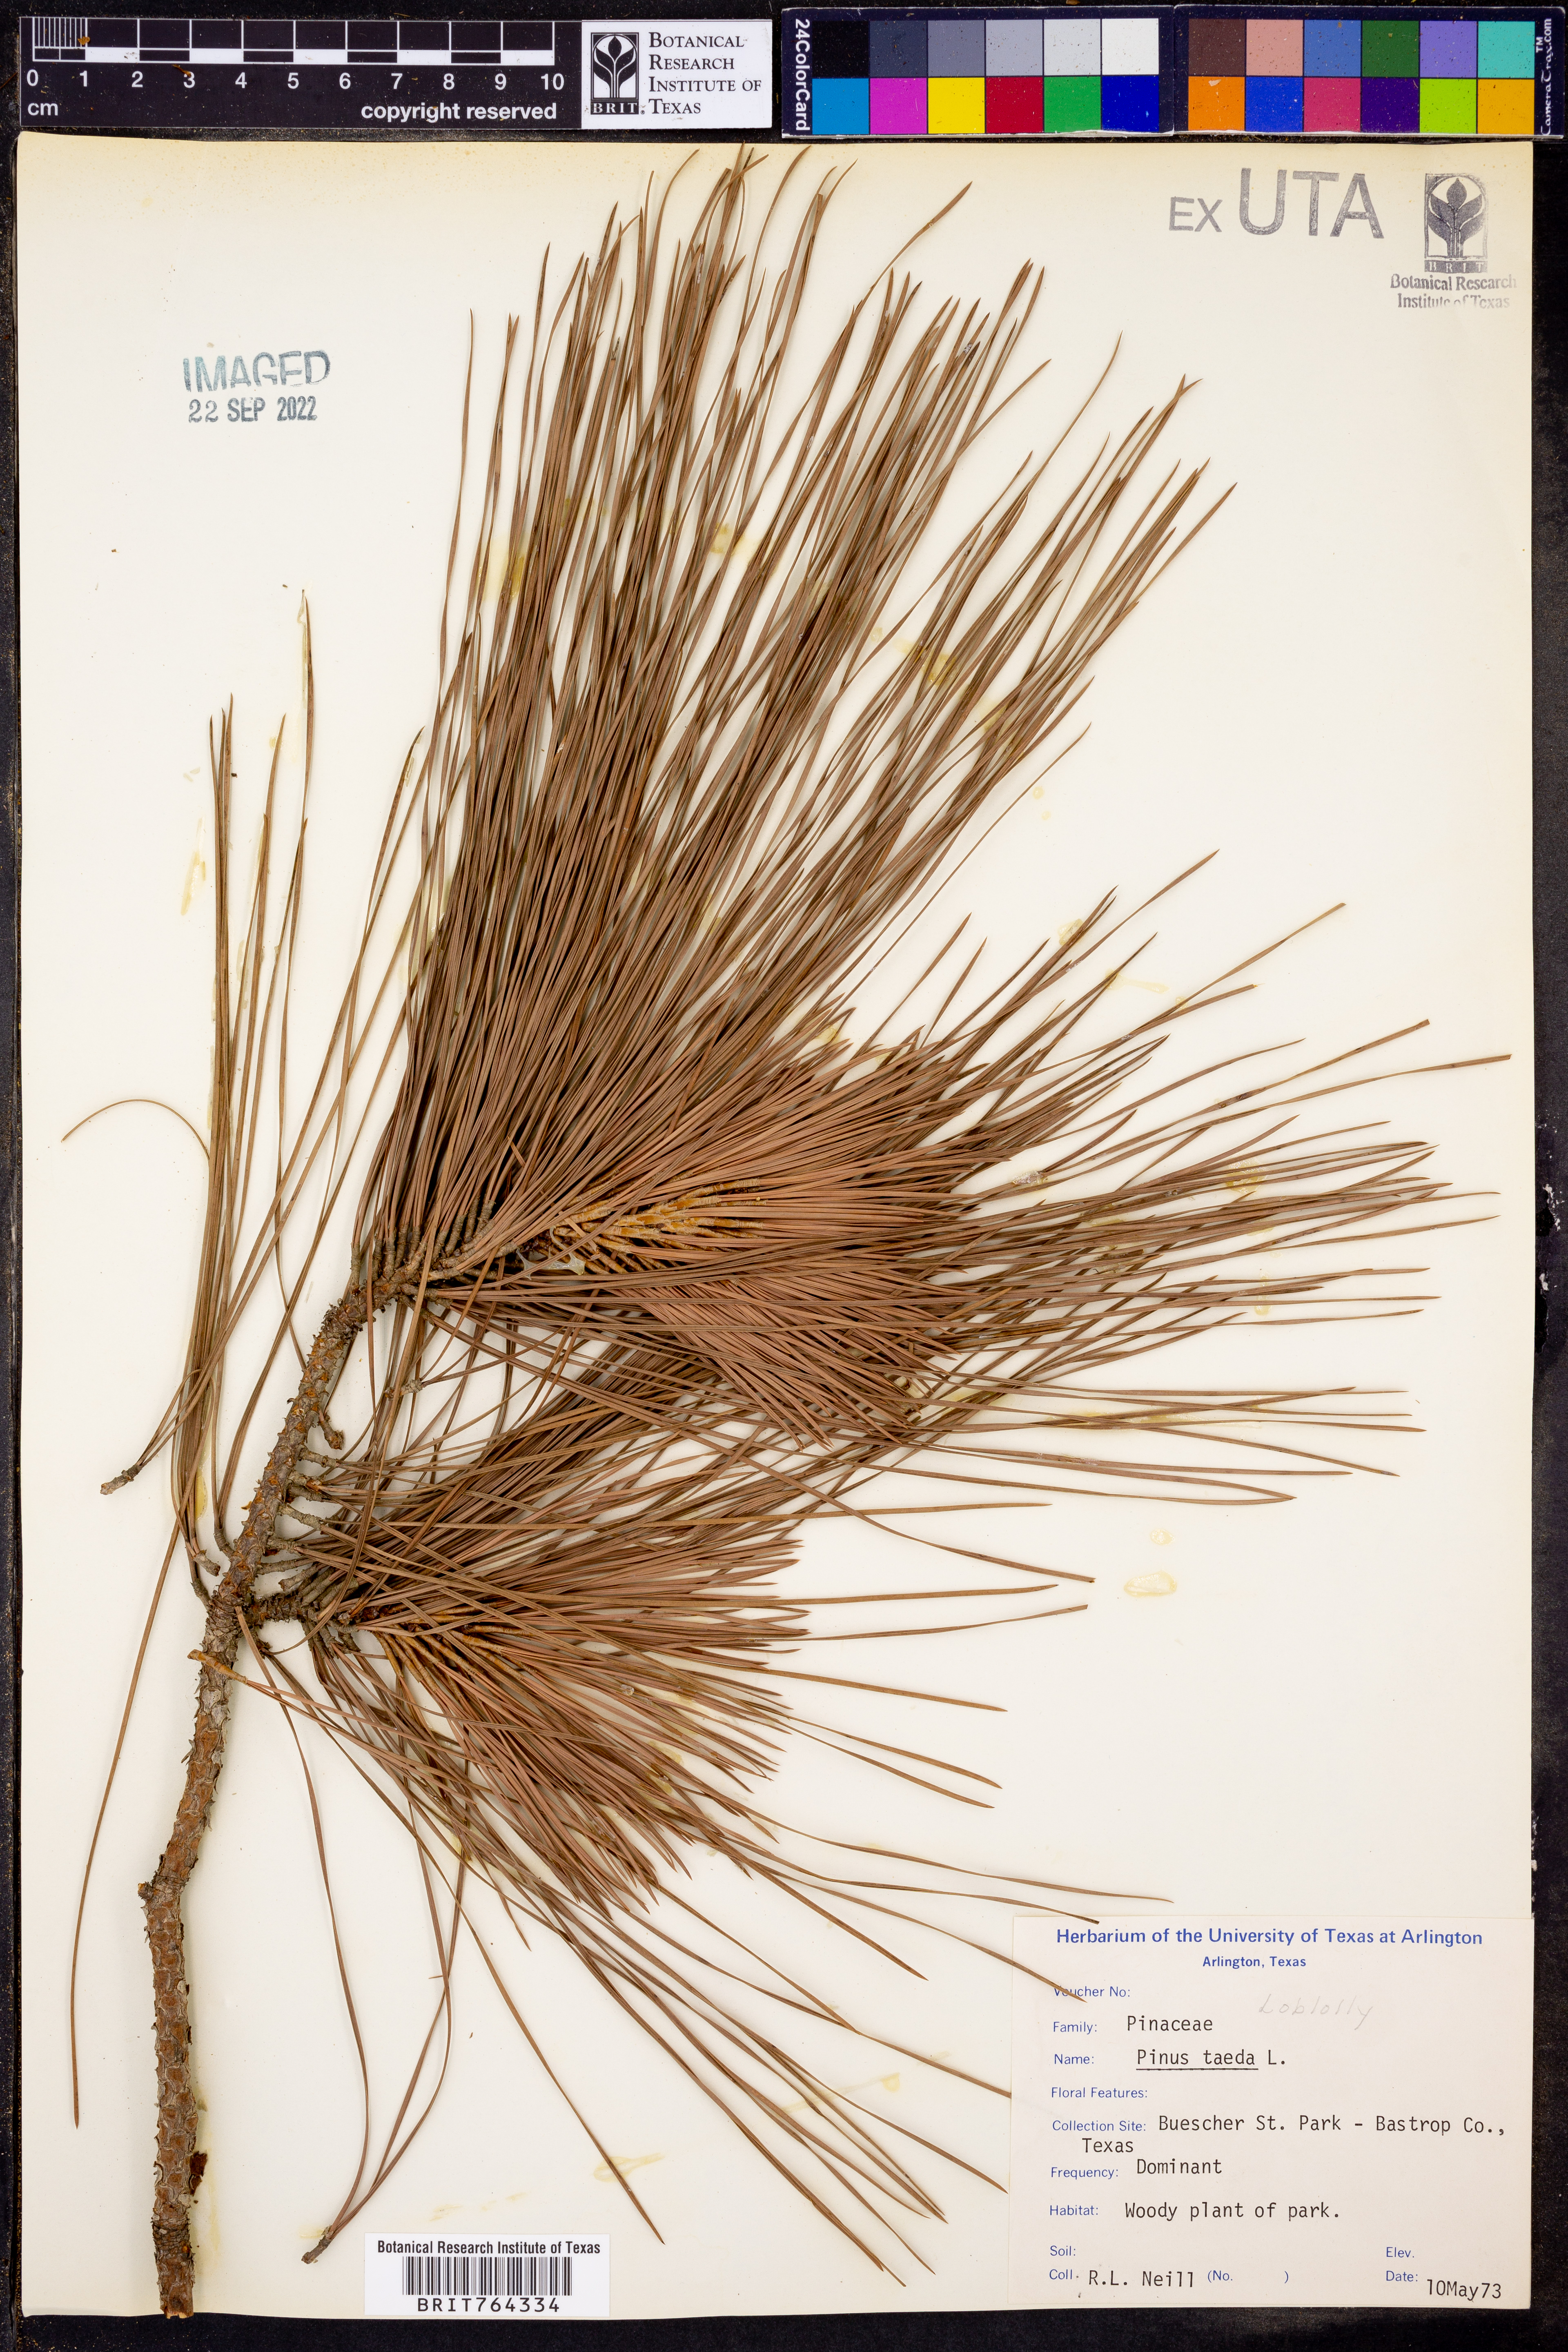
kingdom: Plantae
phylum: Tracheophyta
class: Pinopsida
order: Pinales
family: Pinaceae
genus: Pinus
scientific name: Pinus taeda
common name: Loblolly pine
